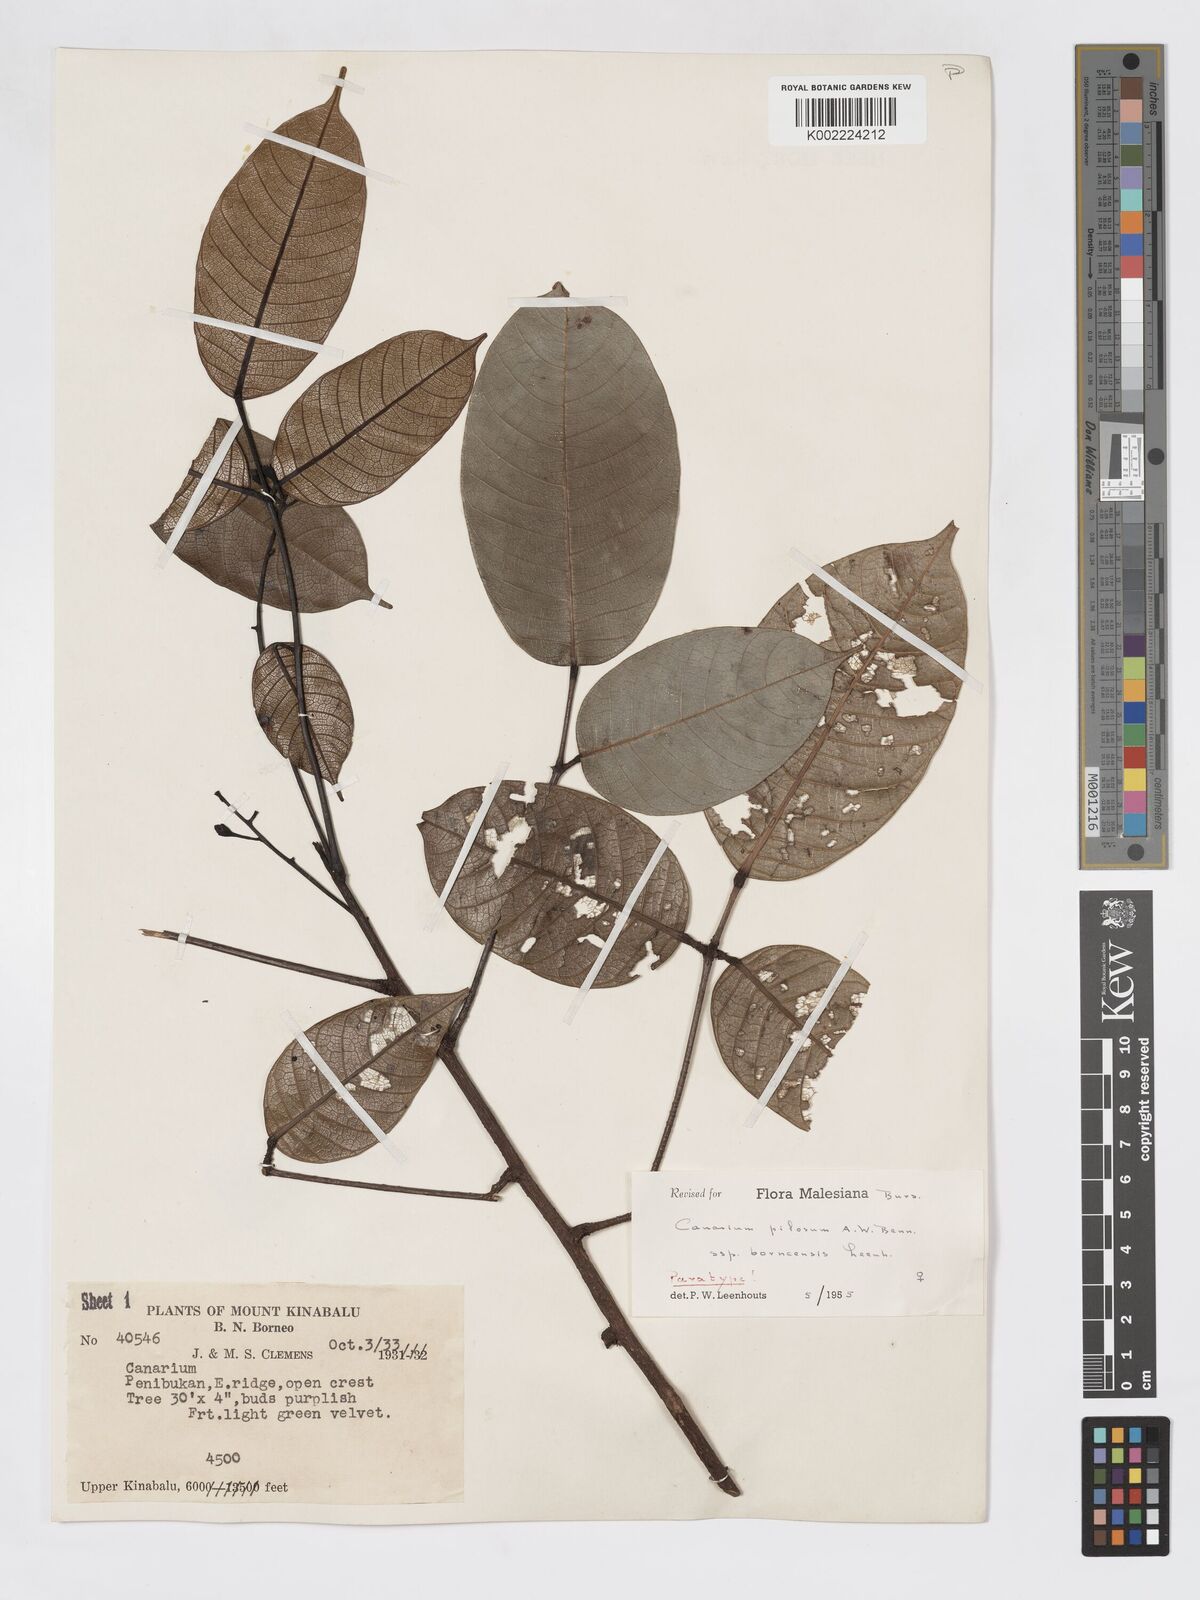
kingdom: Plantae
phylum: Tracheophyta
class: Magnoliopsida
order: Sapindales
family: Burseraceae
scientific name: Burseraceae
